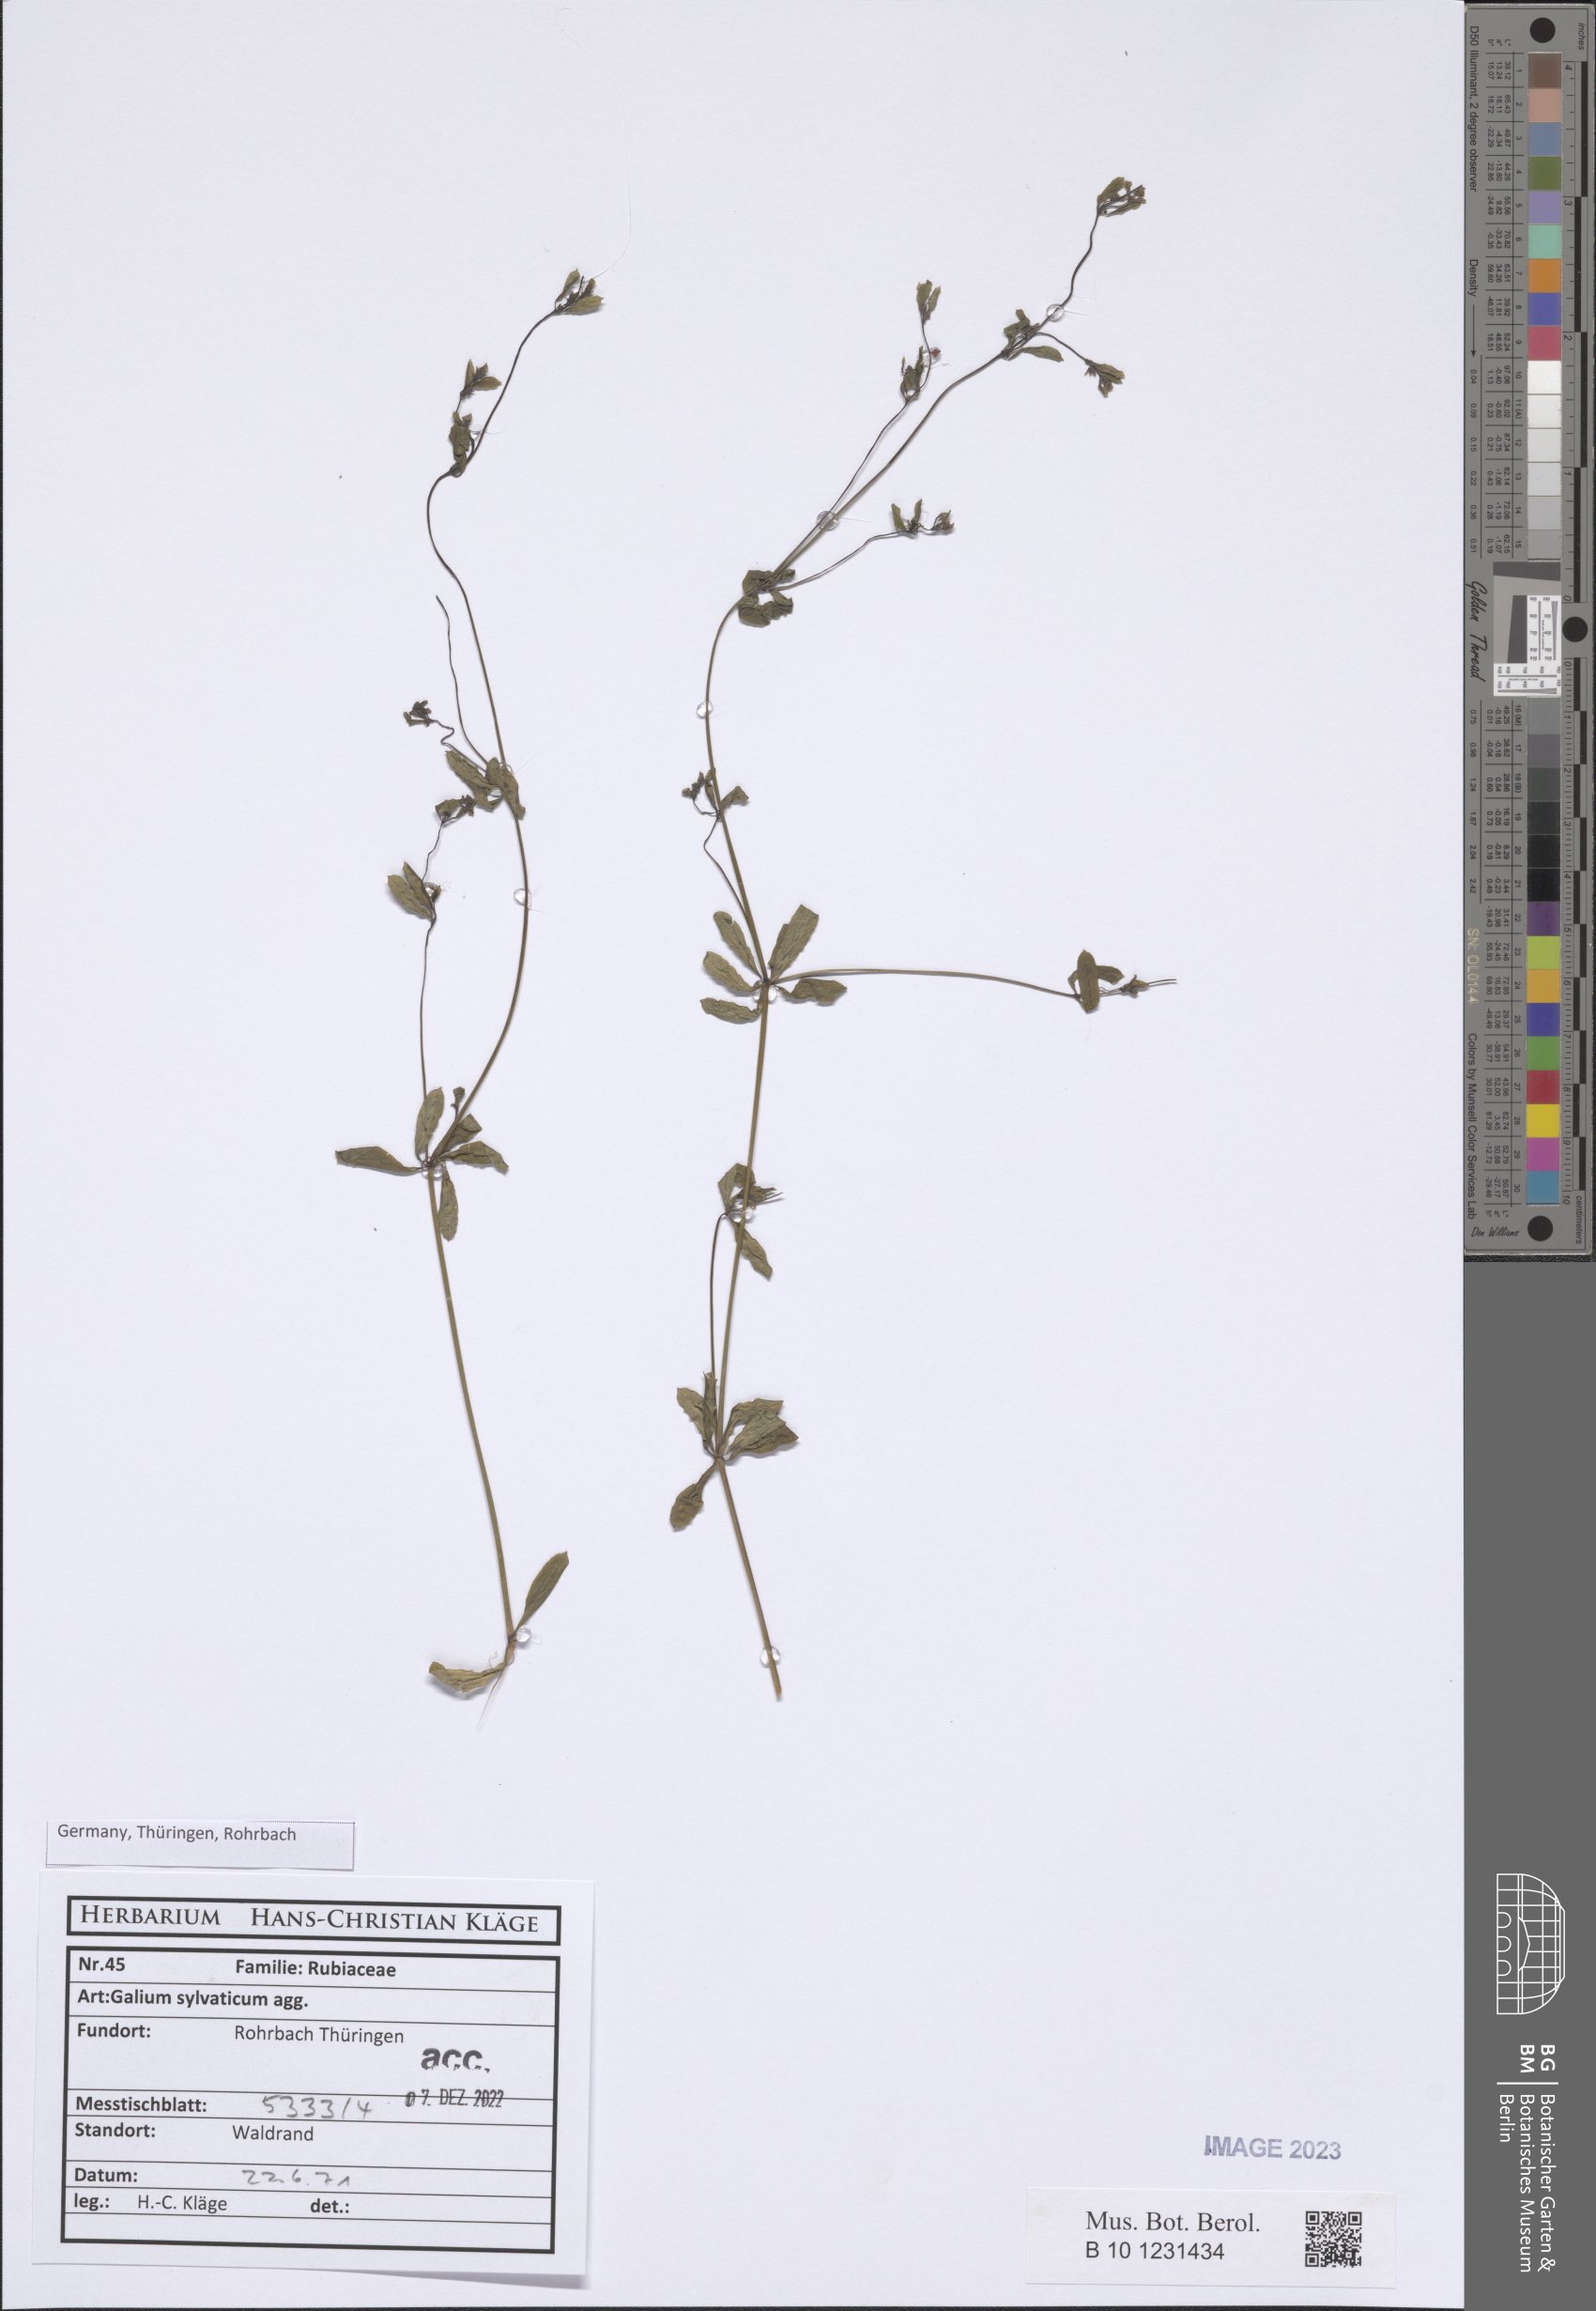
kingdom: Plantae
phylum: Tracheophyta
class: Magnoliopsida
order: Gentianales
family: Rubiaceae
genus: Galium
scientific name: Galium sylvaticum
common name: Wood bedstraw
